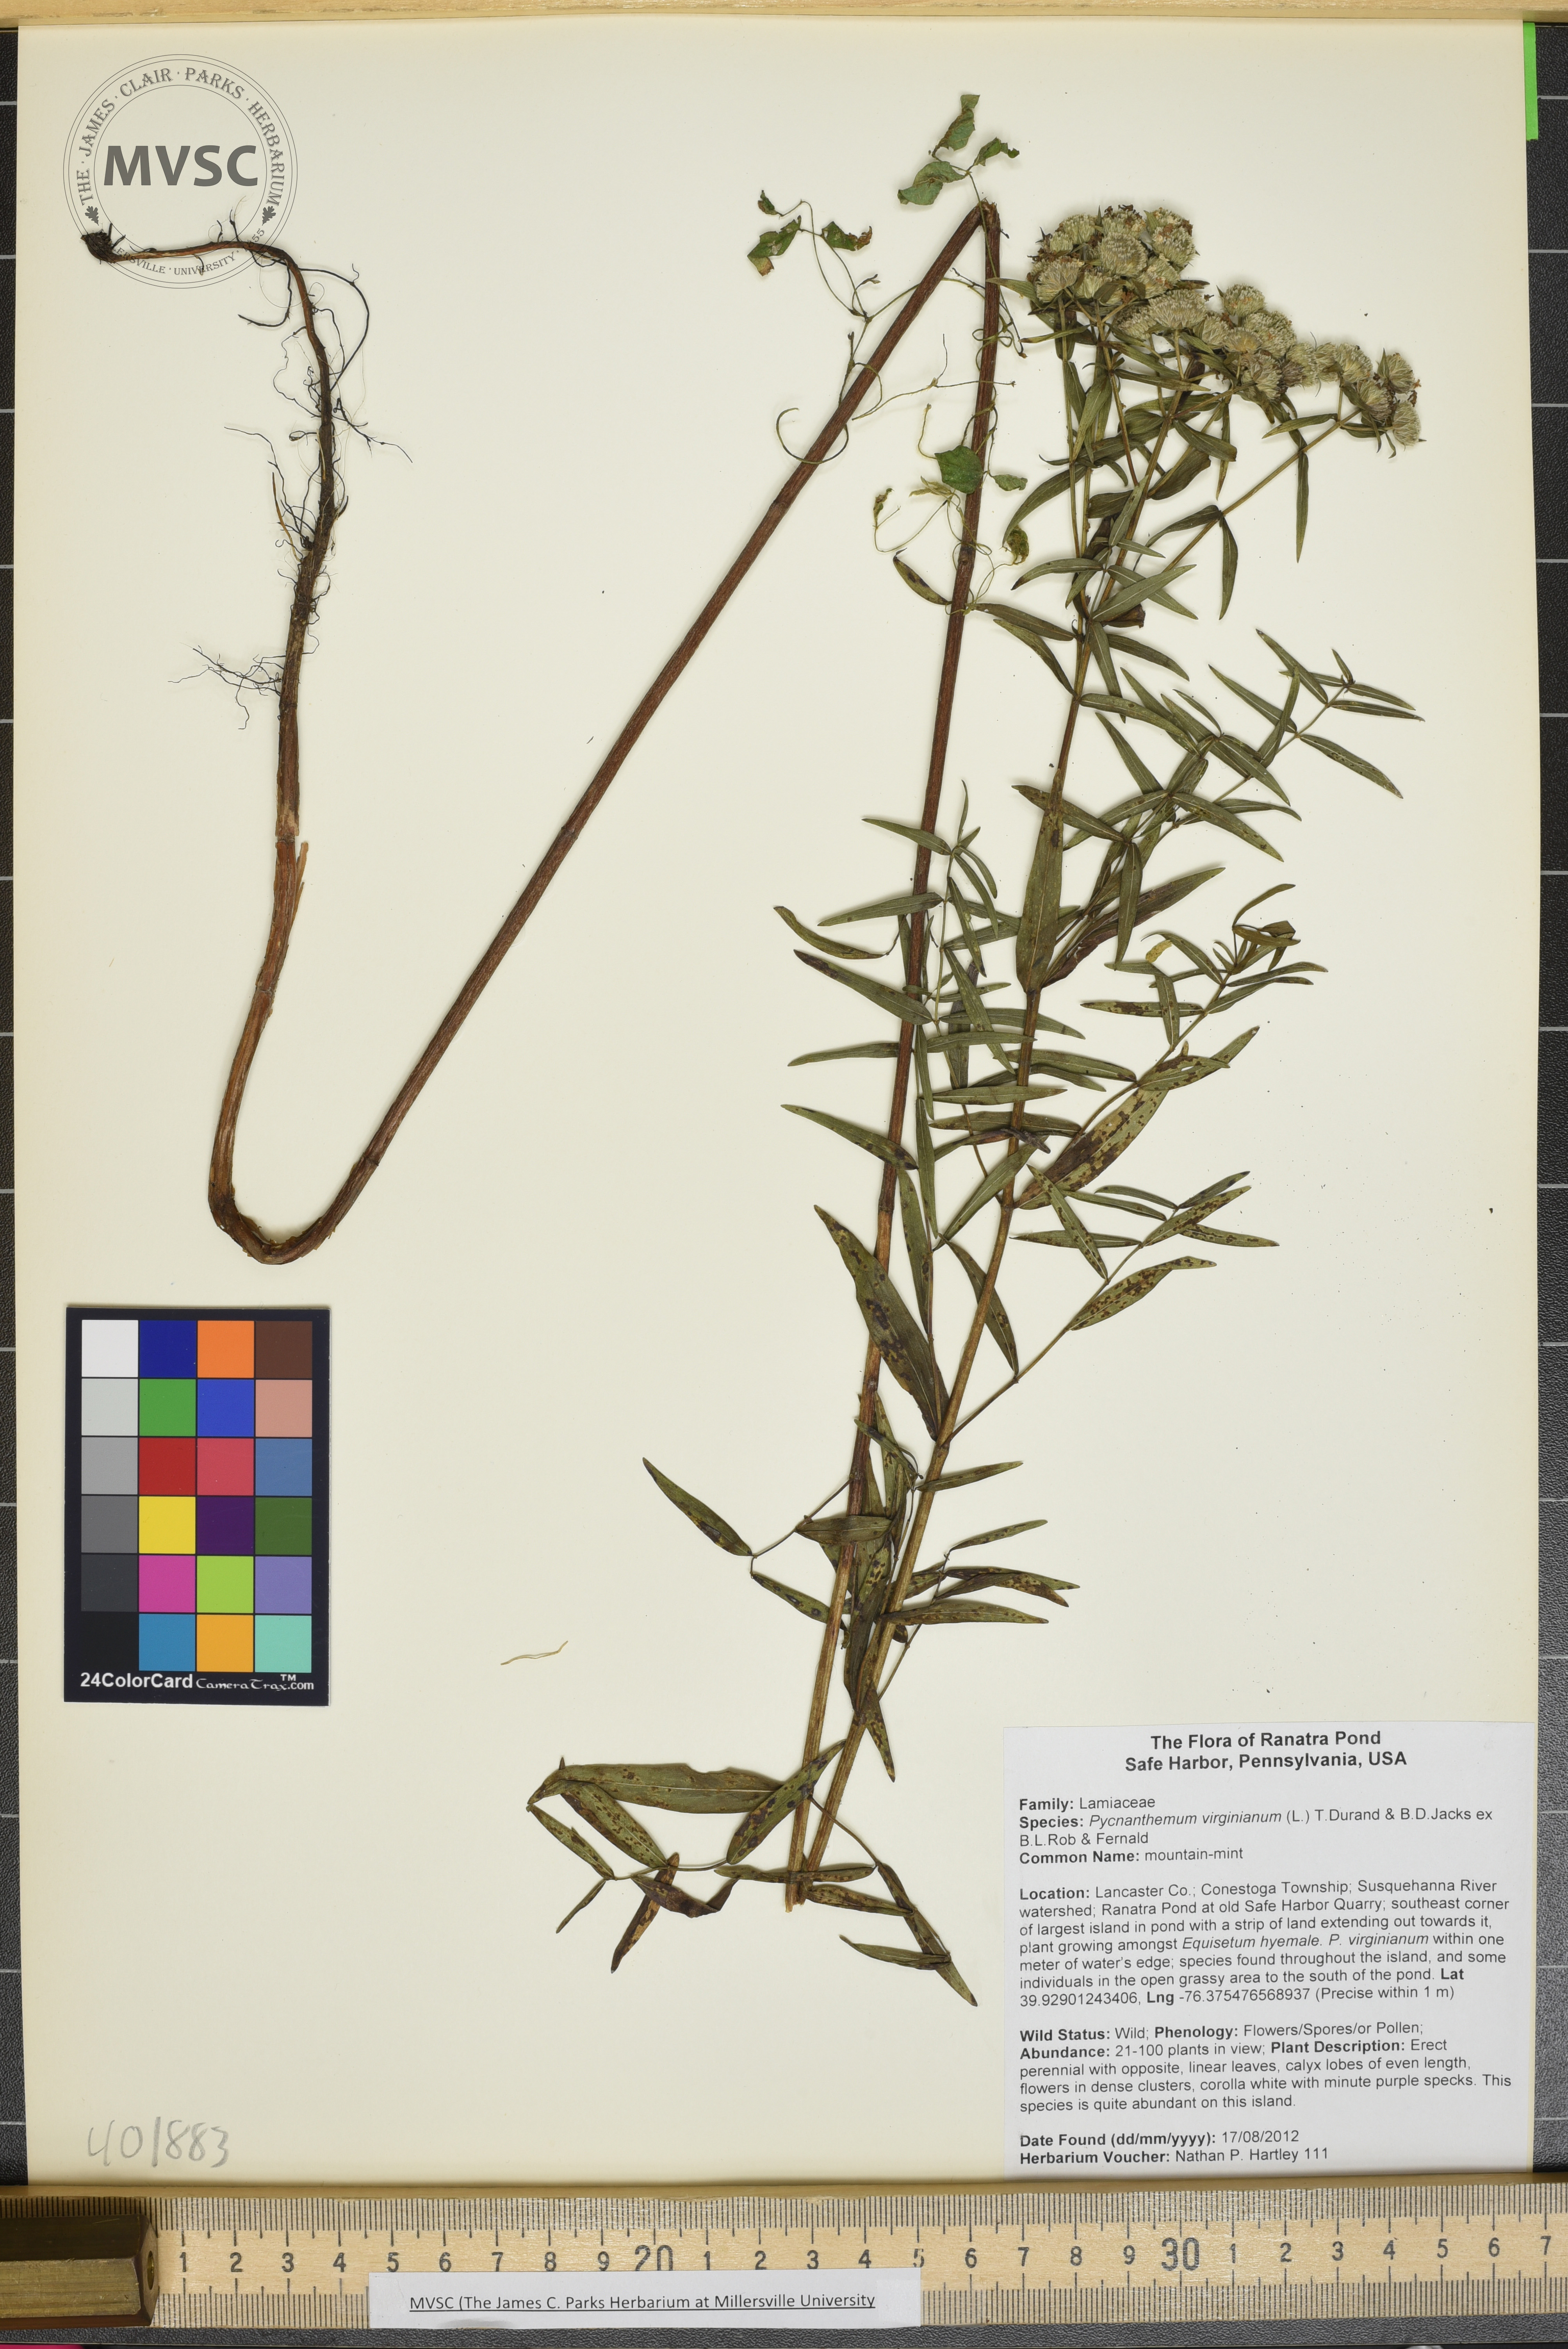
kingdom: Plantae
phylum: Tracheophyta
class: Magnoliopsida
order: Lamiales
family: Lamiaceae
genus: Pycnanthemum
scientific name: Pycnanthemum virginianum
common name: Mountain-mint
